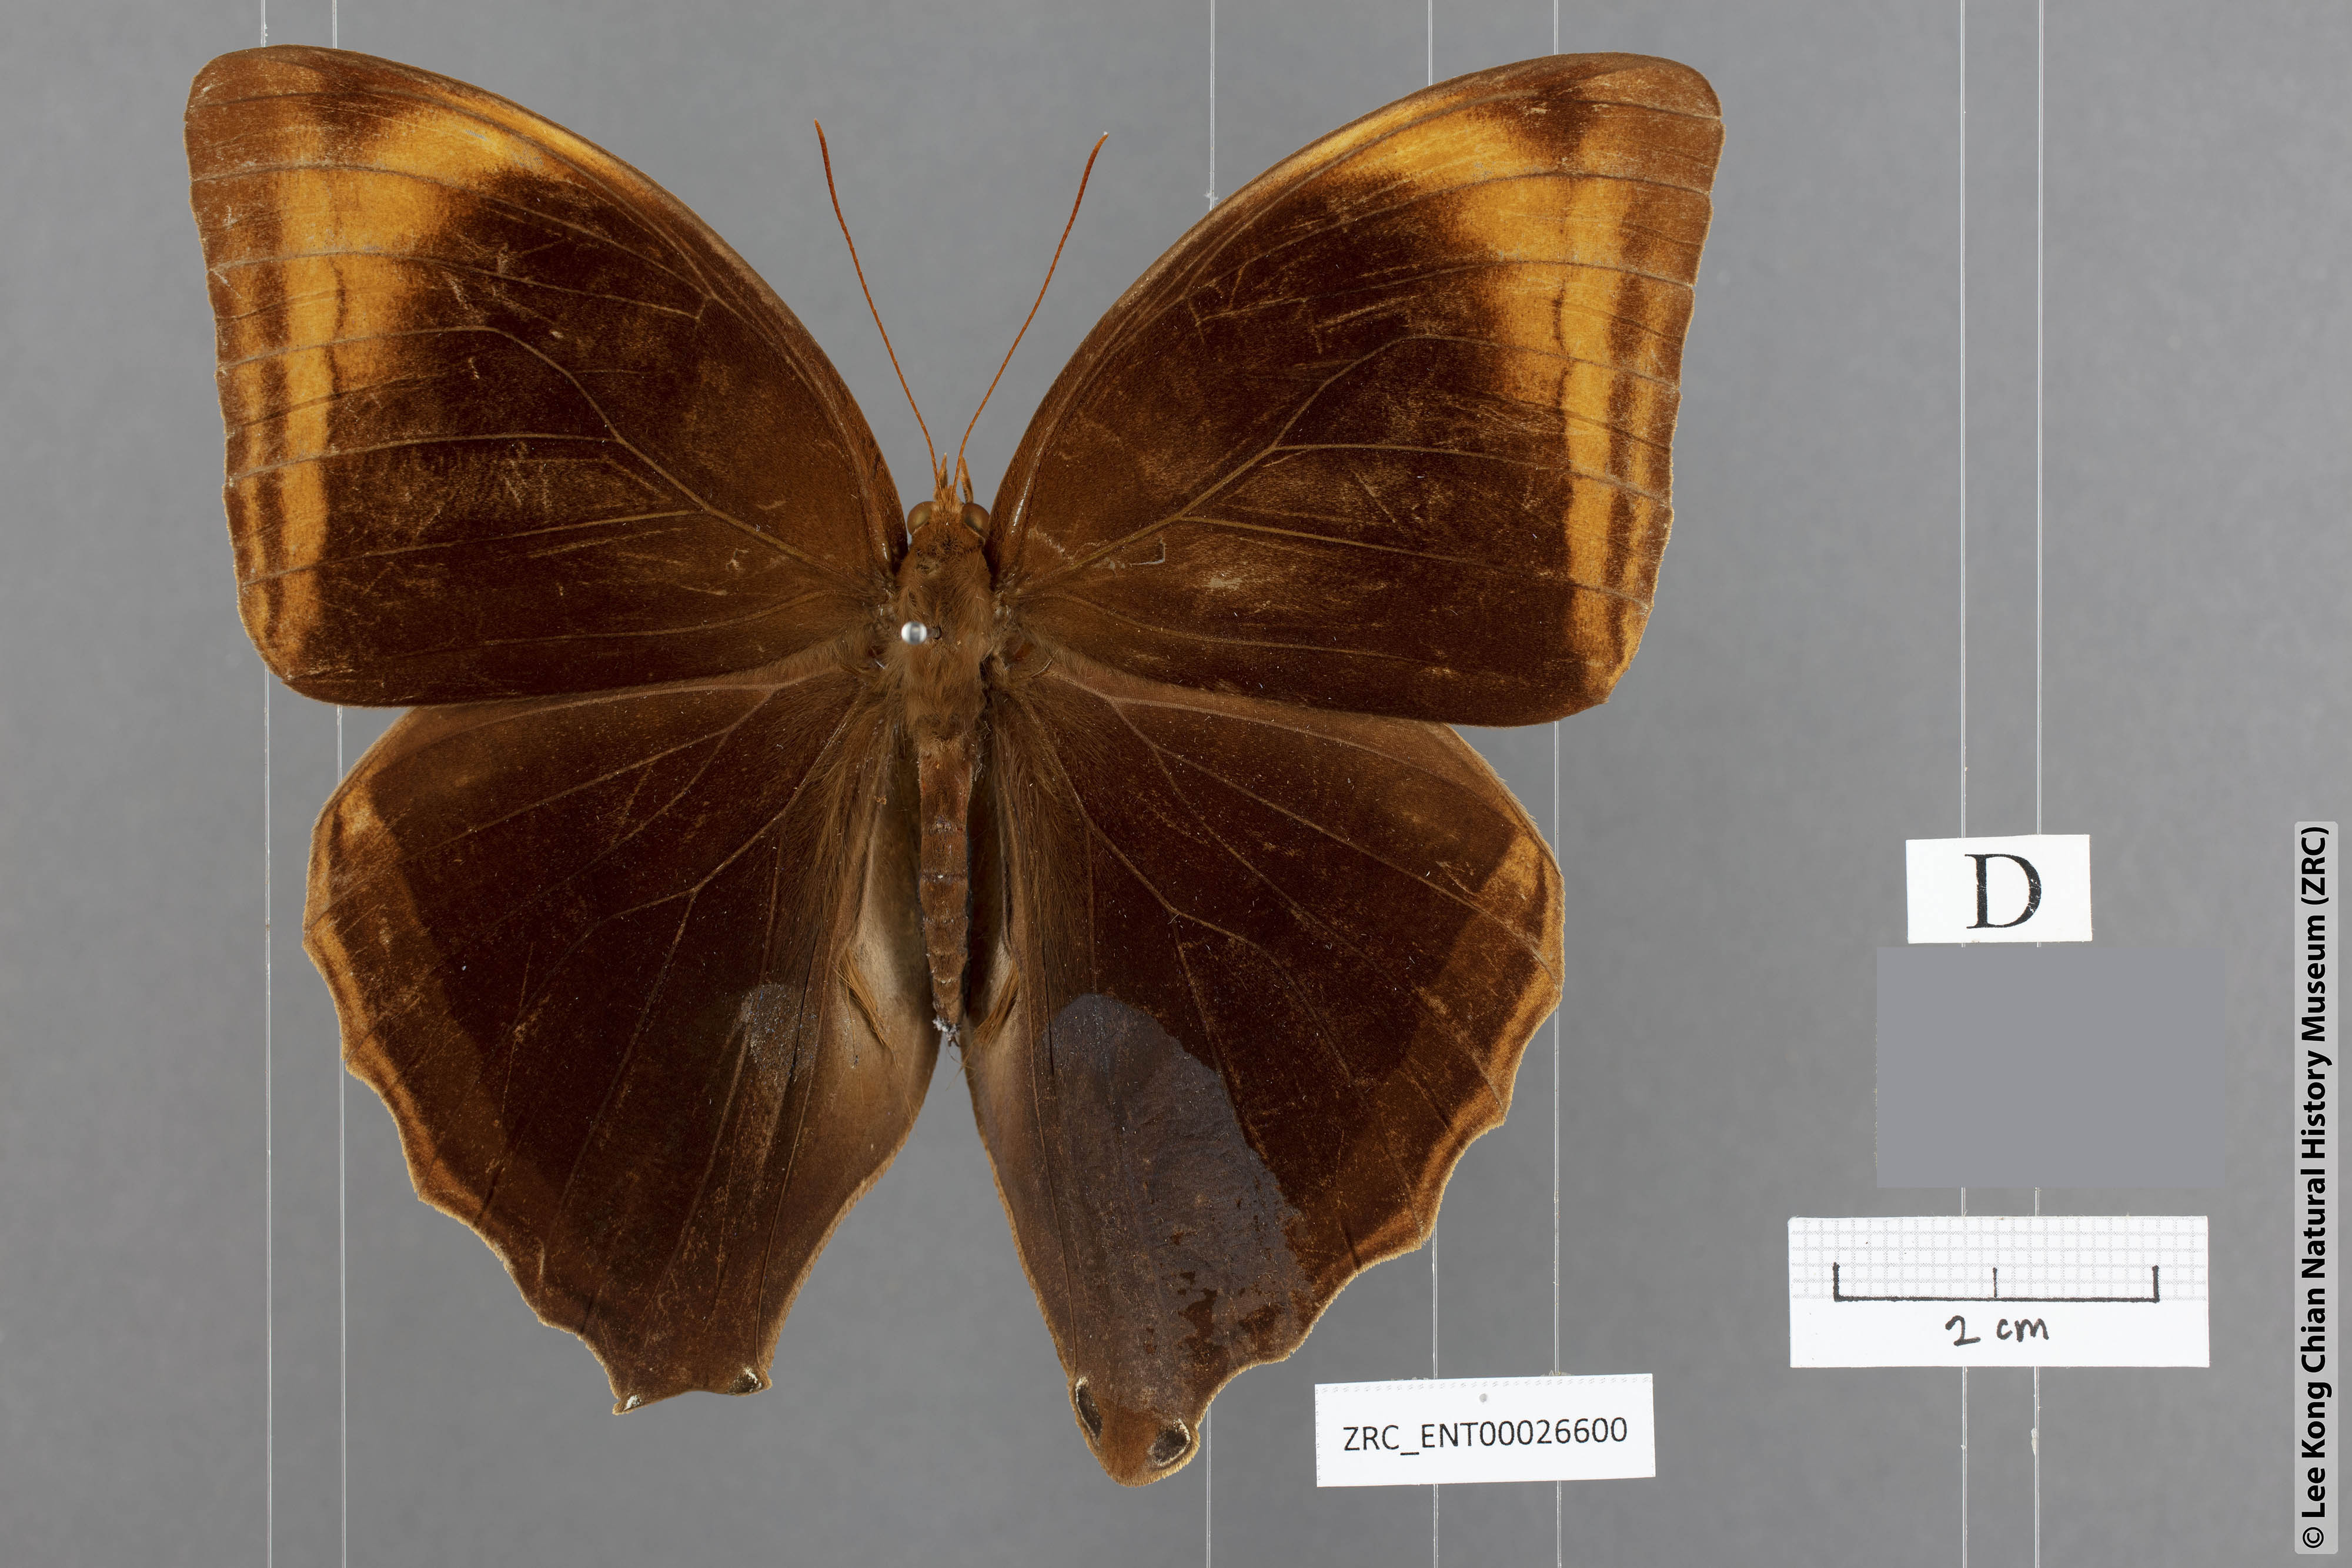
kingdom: Animalia
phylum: Arthropoda
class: Insecta
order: Lepidoptera
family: Nymphalidae
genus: Amathusia
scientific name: Amathusia binghami
